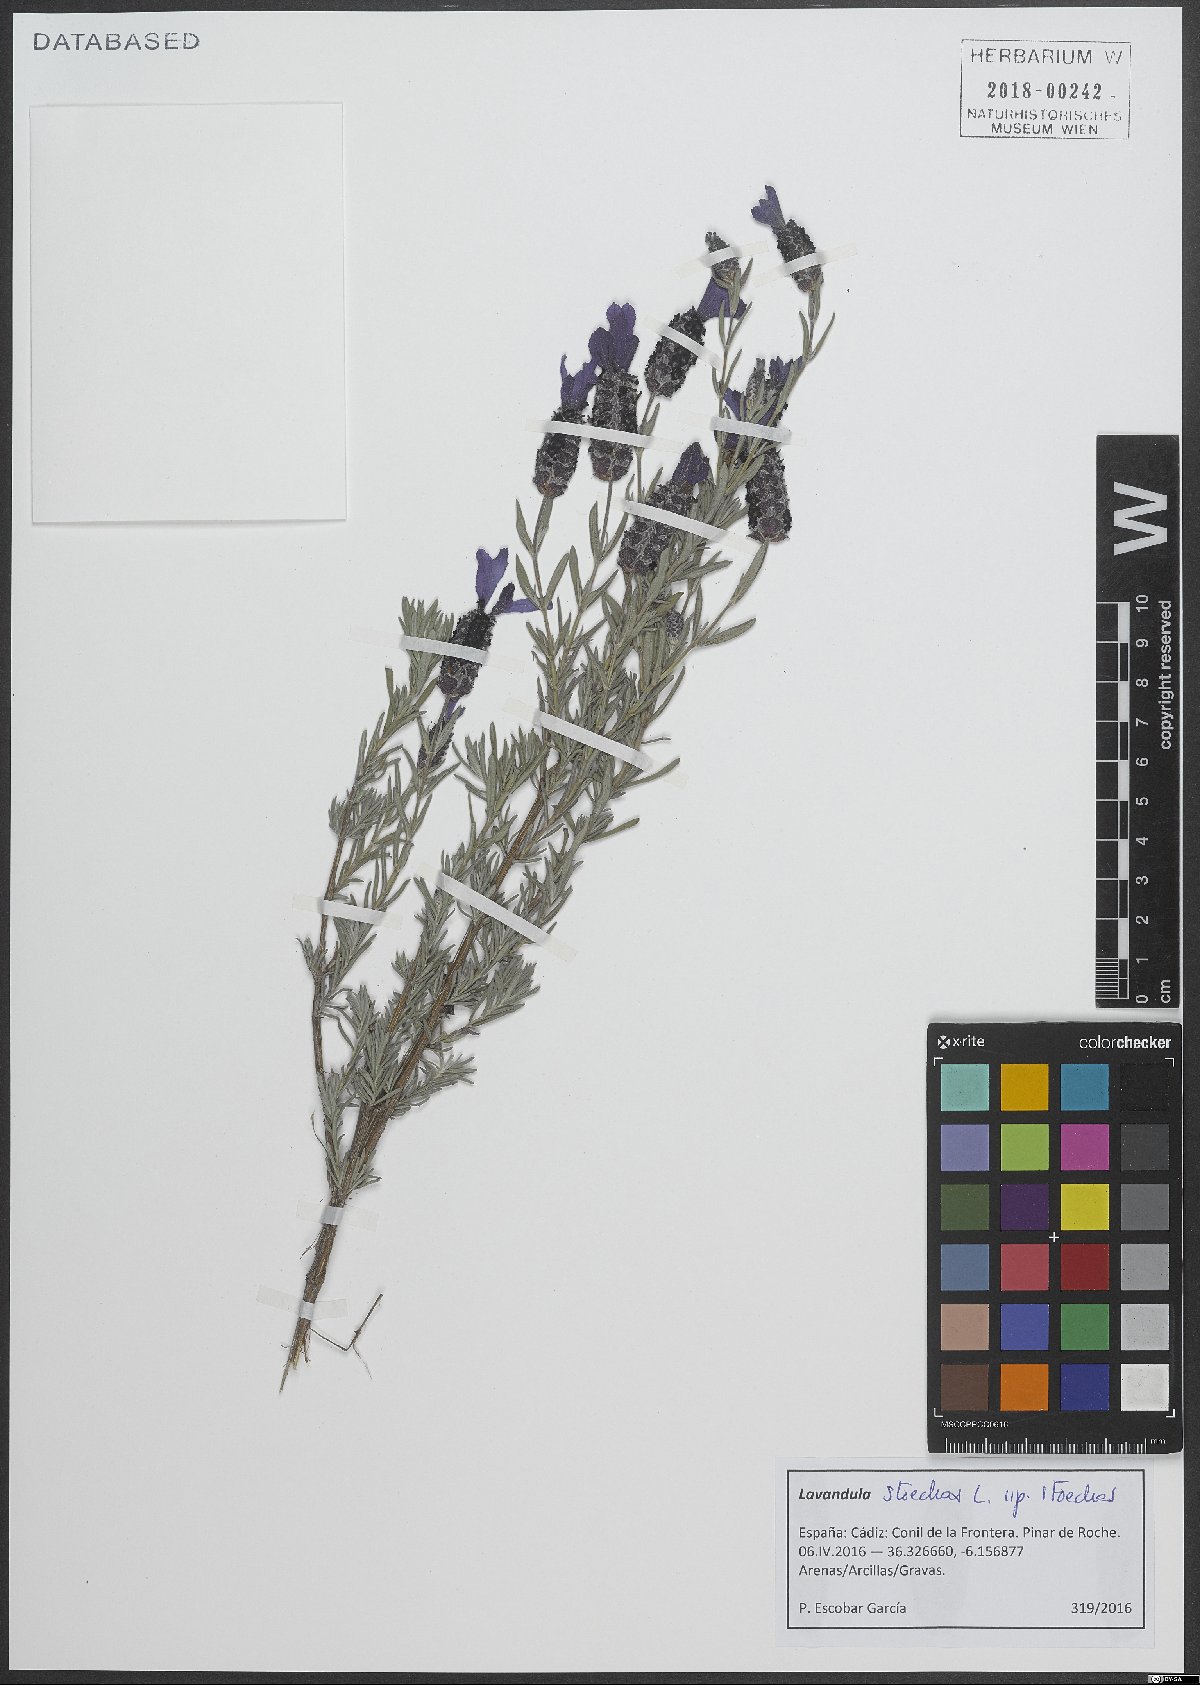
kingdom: Plantae
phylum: Tracheophyta
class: Magnoliopsida
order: Lamiales
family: Lamiaceae
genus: Lavandula
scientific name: Lavandula stoechas
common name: French lavender
